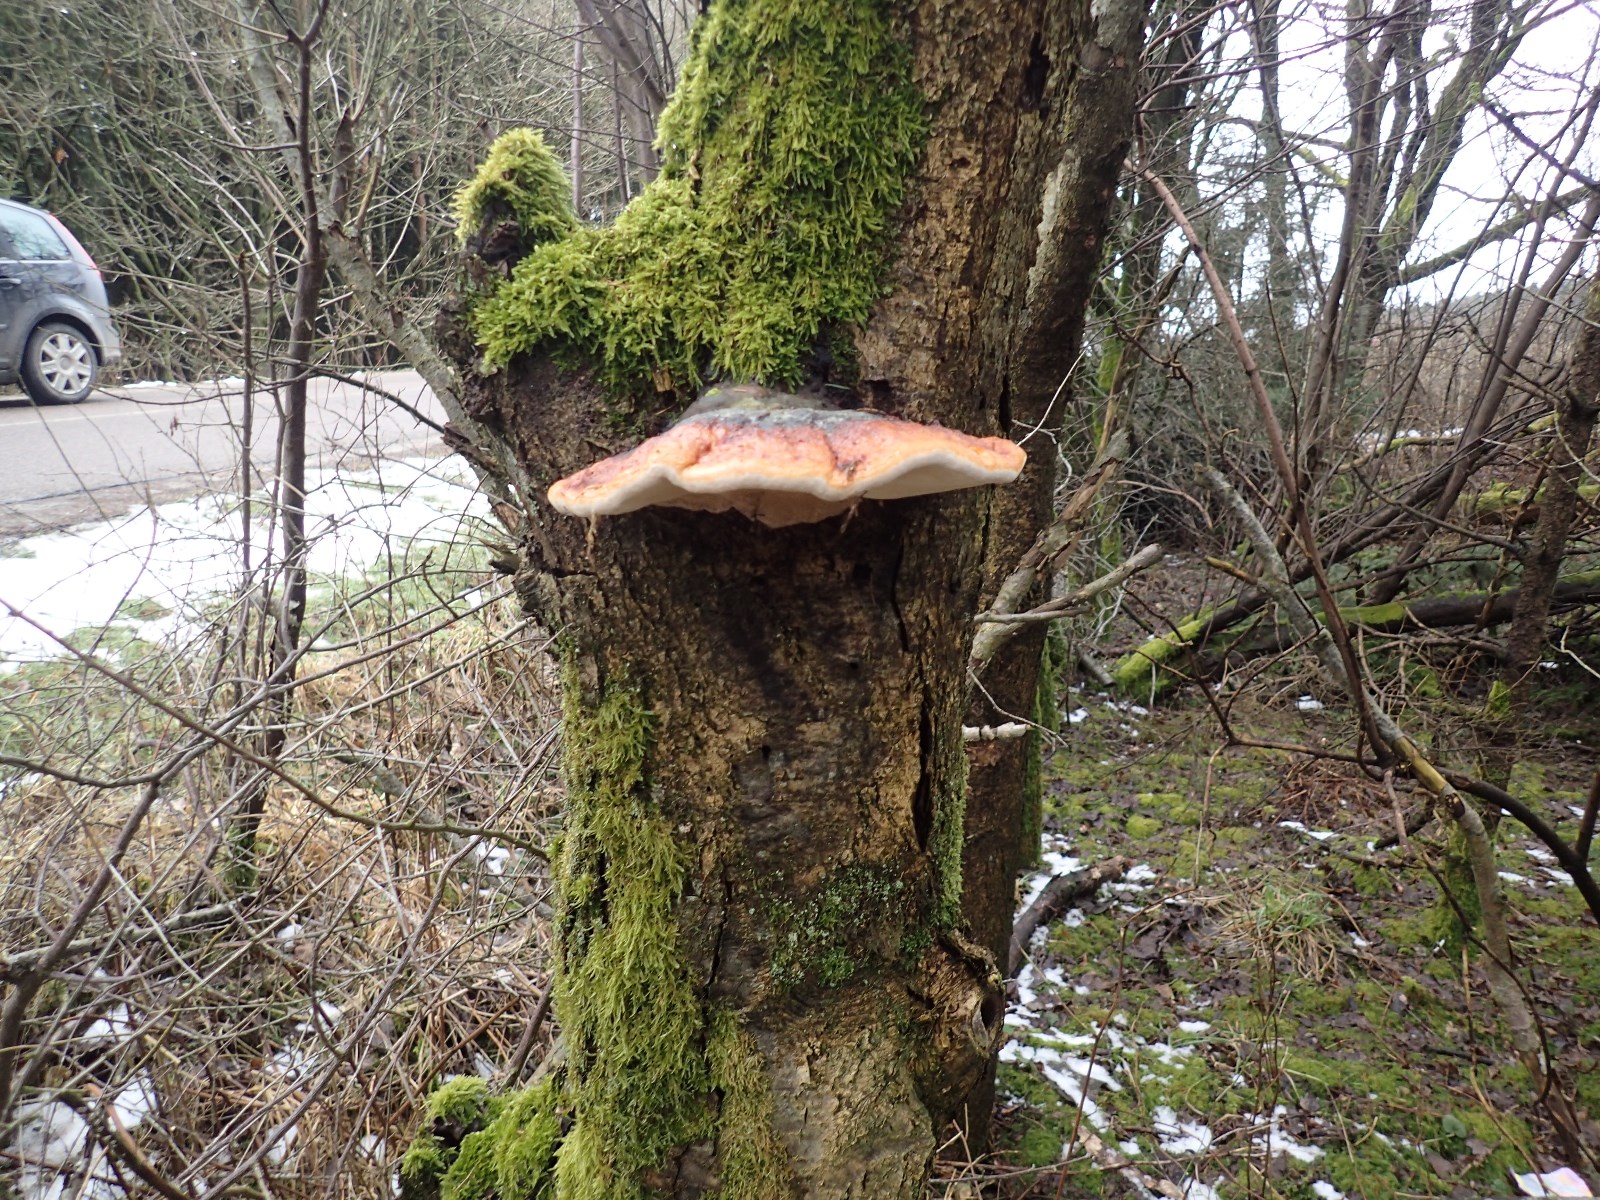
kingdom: Fungi
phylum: Basidiomycota
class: Agaricomycetes
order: Polyporales
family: Fomitopsidaceae
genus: Fomitopsis
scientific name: Fomitopsis pinicola
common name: randbæltet hovporesvamp
